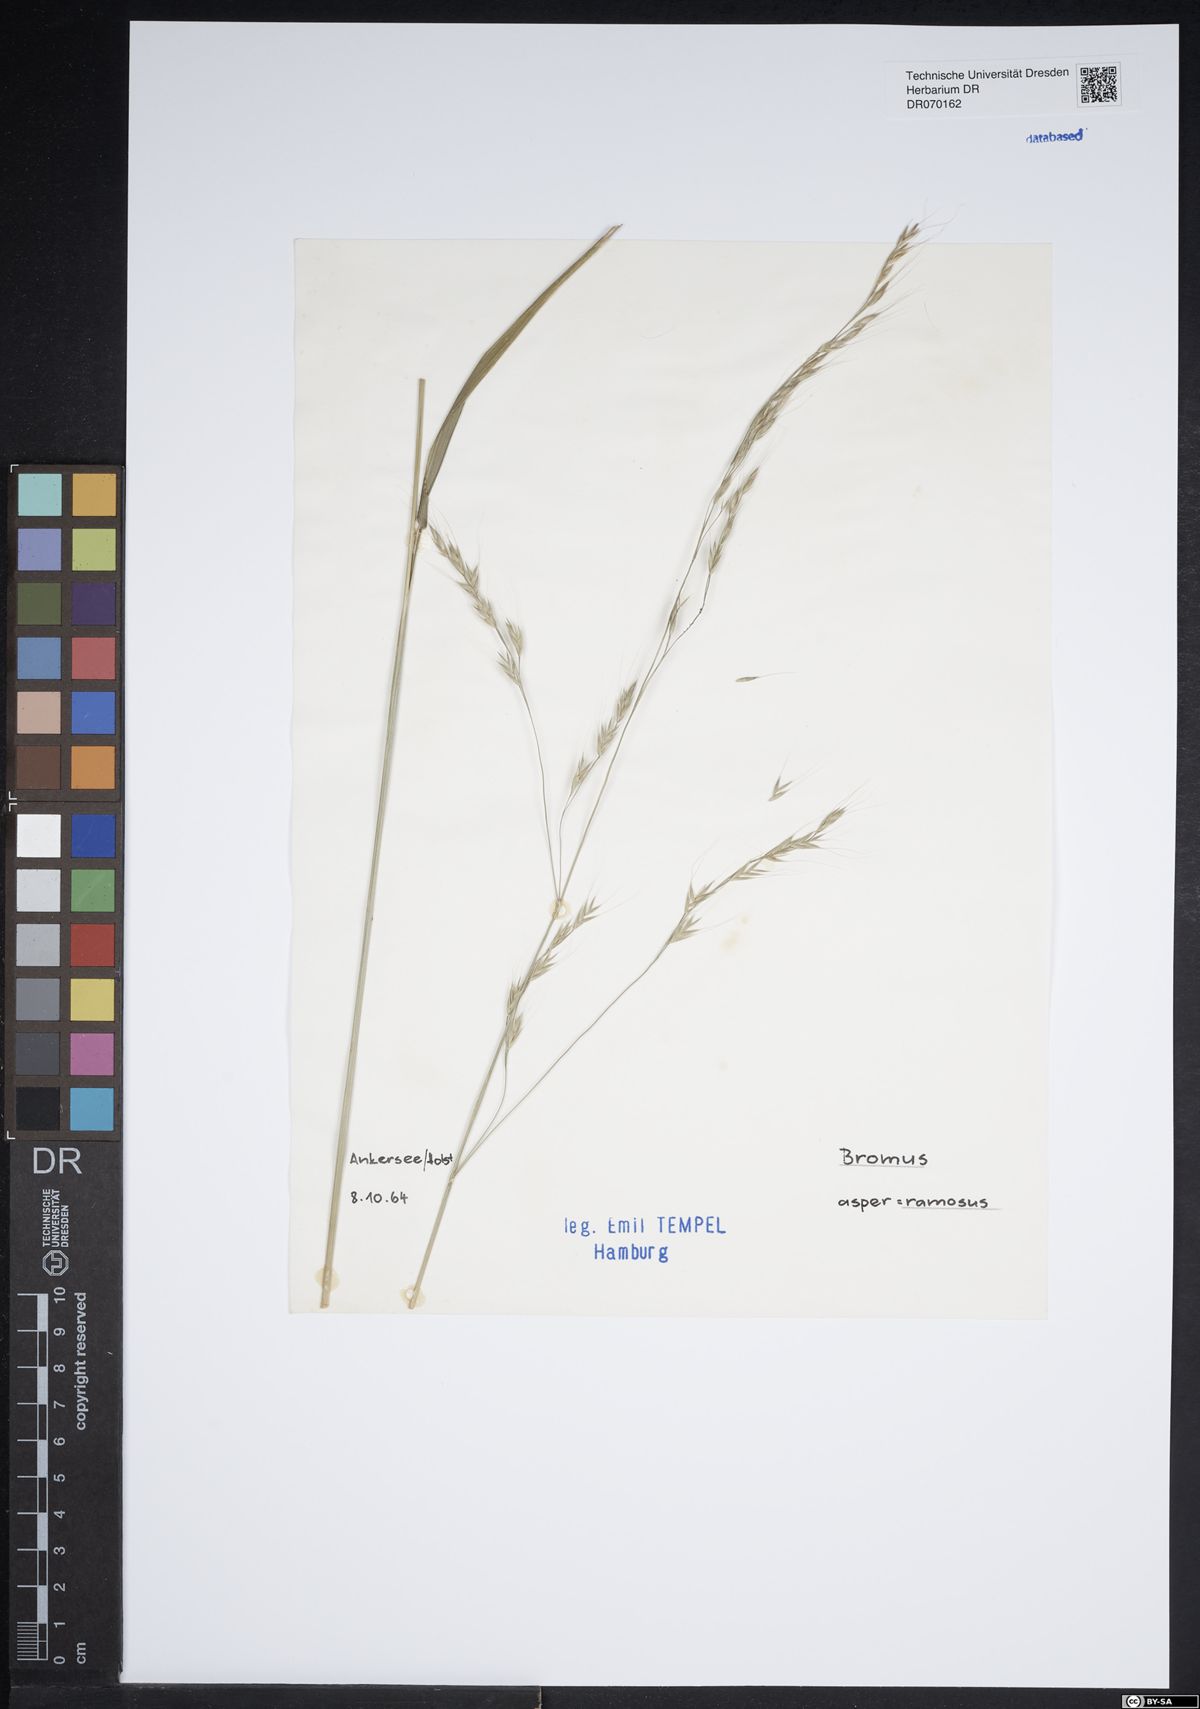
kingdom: Plantae
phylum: Tracheophyta
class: Liliopsida
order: Poales
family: Poaceae
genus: Bromus
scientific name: Bromus ramosus
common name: Hairy brome
